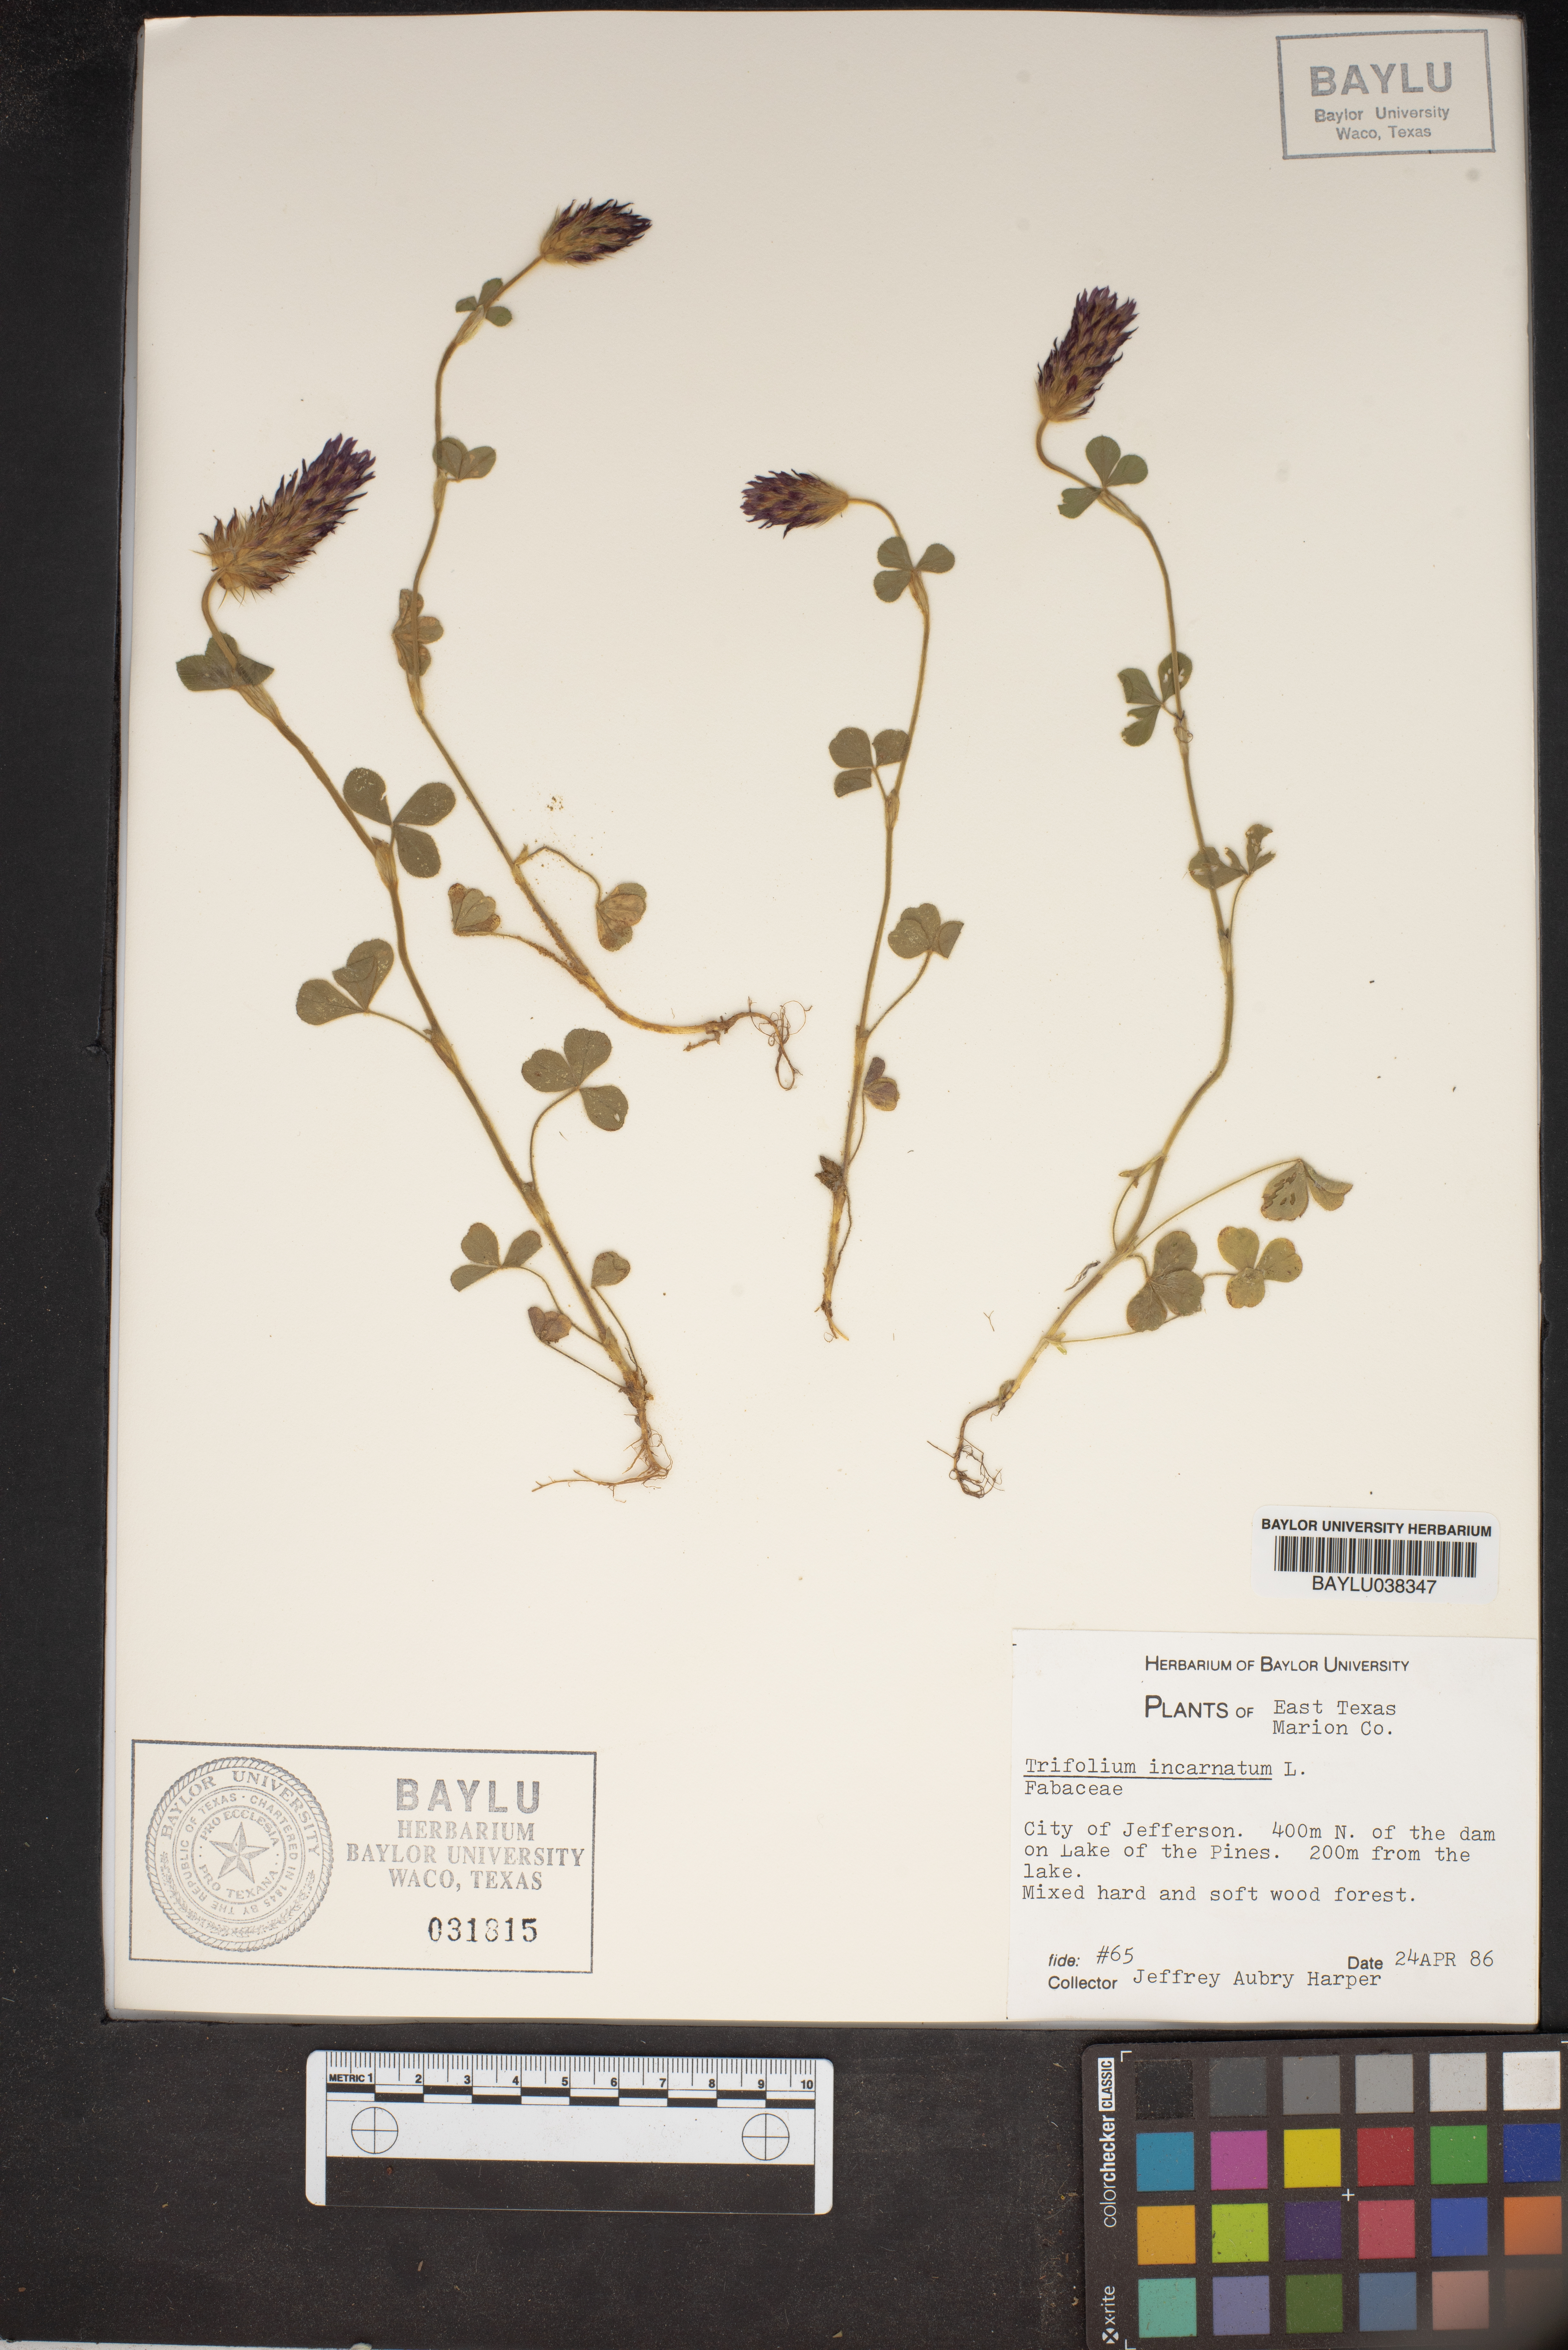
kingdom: Plantae
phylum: Tracheophyta
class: Magnoliopsida
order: Fabales
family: Fabaceae
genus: Trifolium
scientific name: Trifolium incarnatum
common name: Crimson clover
